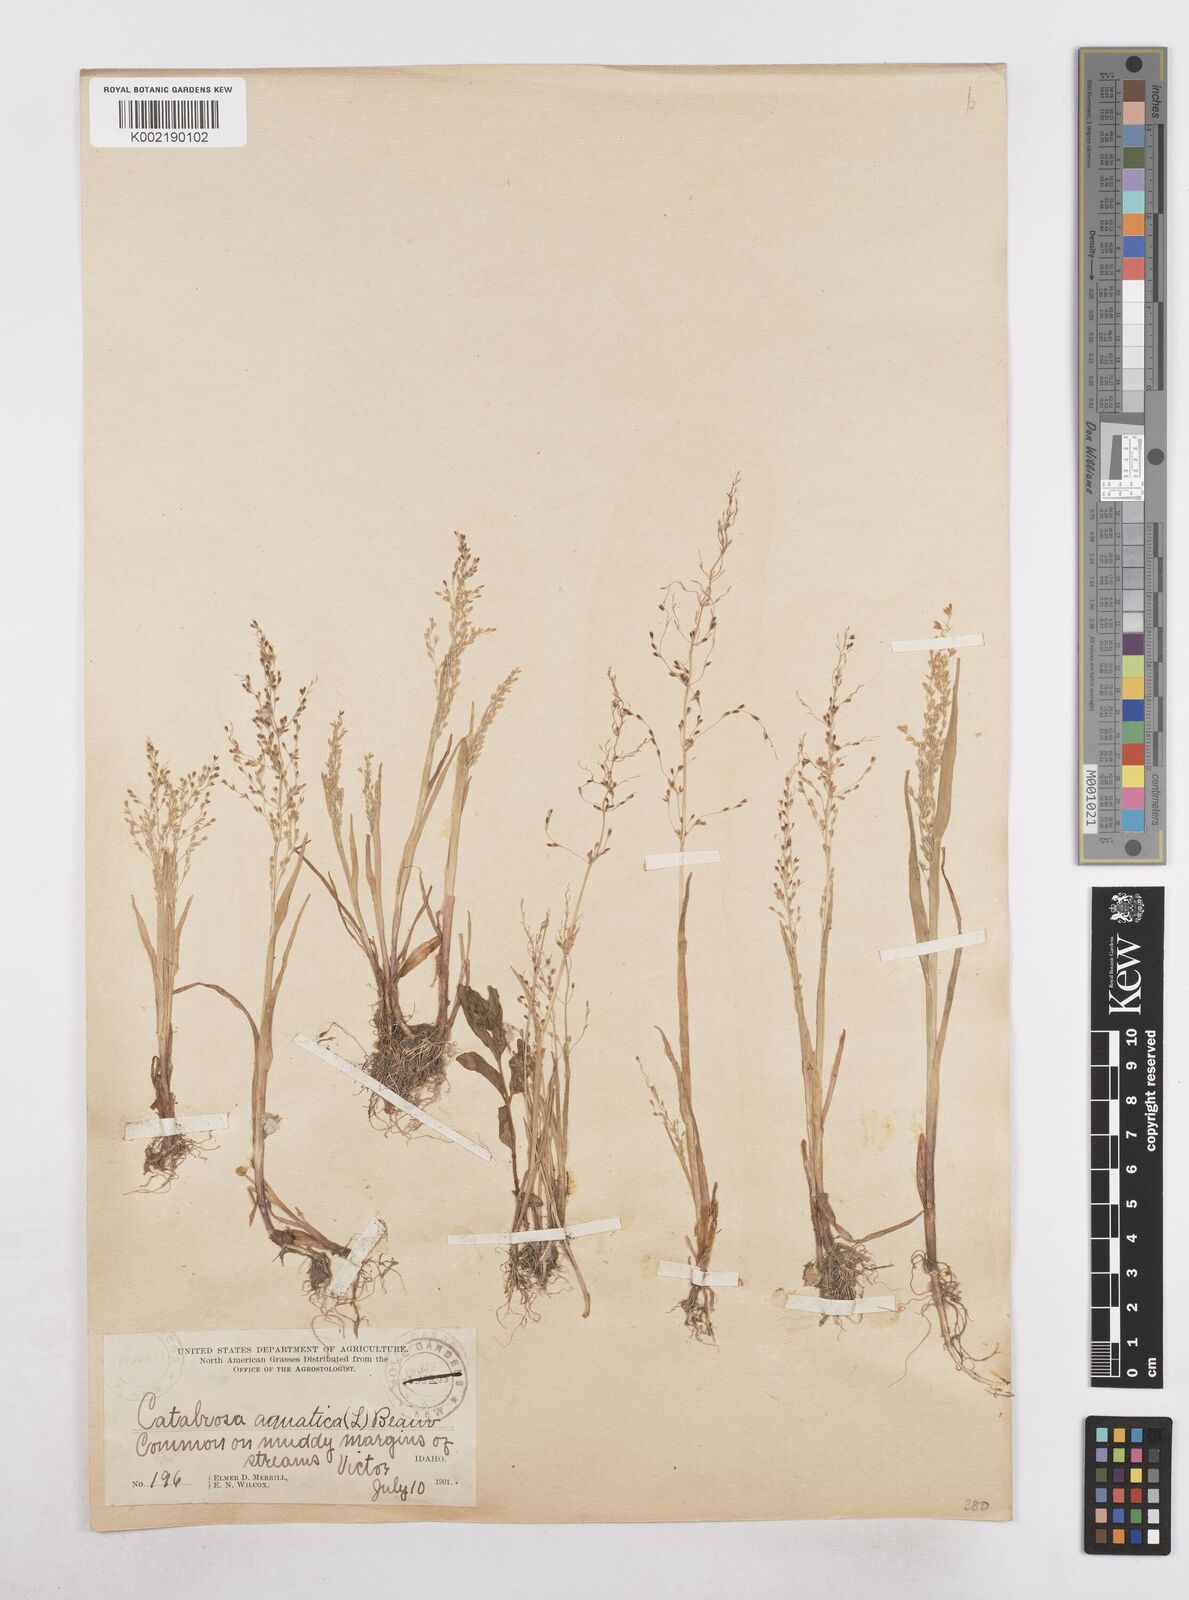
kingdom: Plantae
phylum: Tracheophyta
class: Liliopsida
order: Poales
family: Poaceae
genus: Catabrosa
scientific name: Catabrosa aquatica
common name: Whorl-grass
